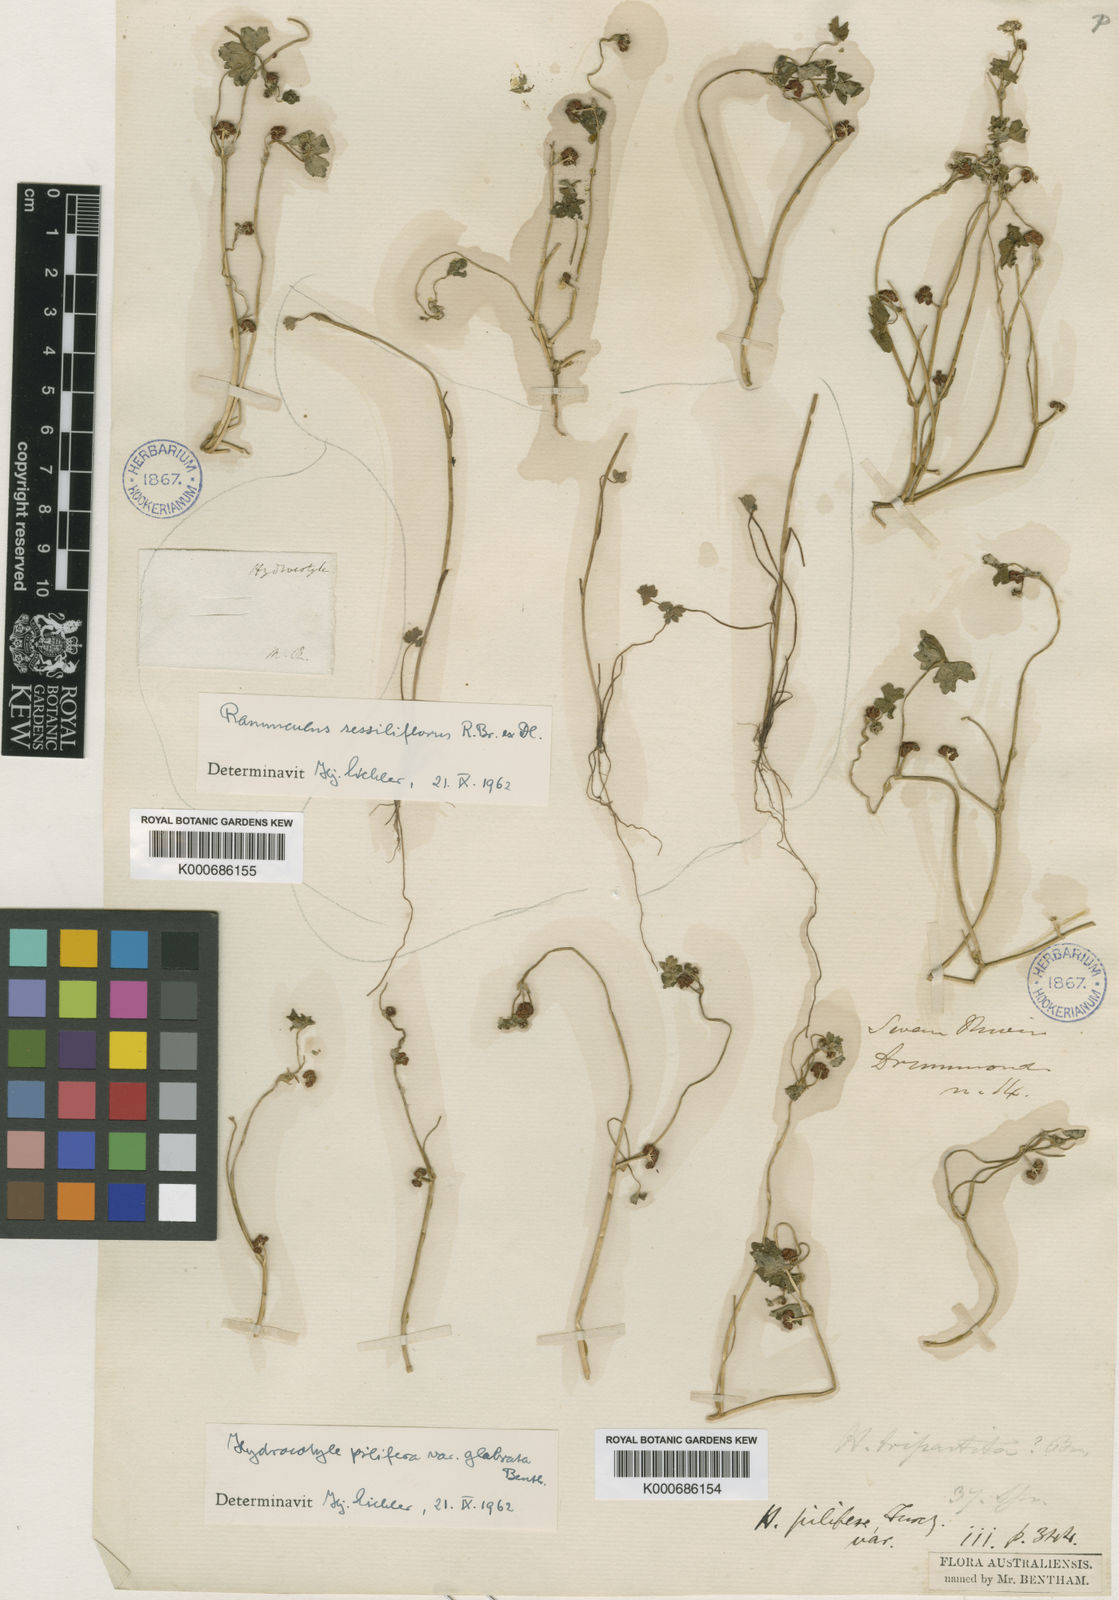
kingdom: Plantae
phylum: Tracheophyta
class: Magnoliopsida
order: Apiales
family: Araliaceae
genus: Hydrocotyle
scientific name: Hydrocotyle pilifera
